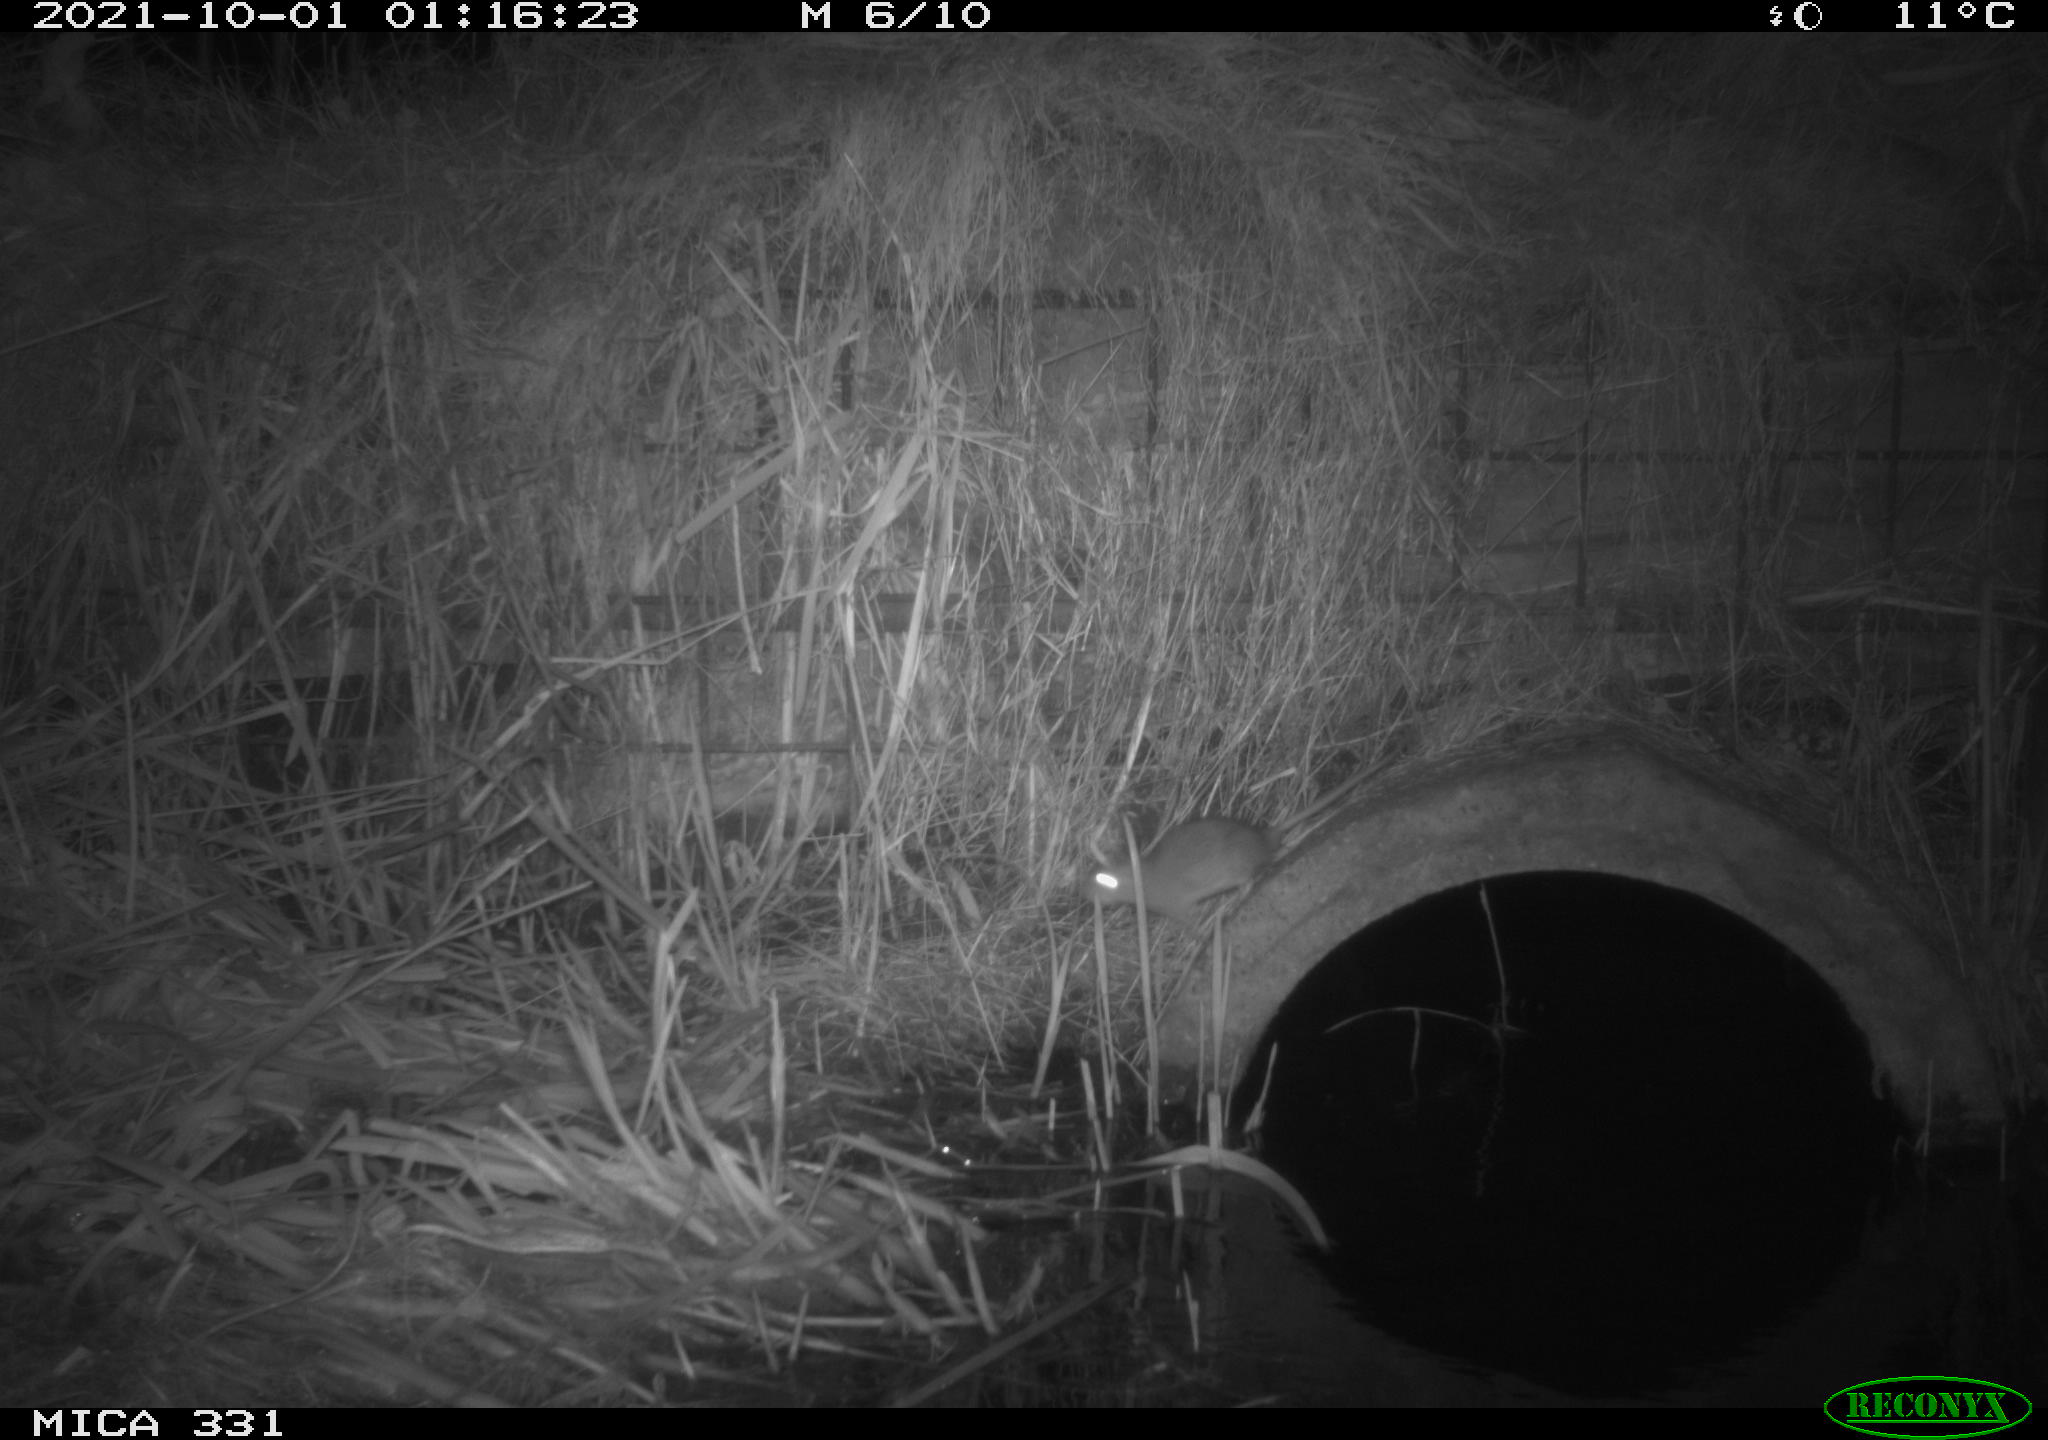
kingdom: Animalia
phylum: Chordata
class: Mammalia
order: Rodentia
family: Muridae
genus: Rattus
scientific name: Rattus norvegicus
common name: Brown rat
